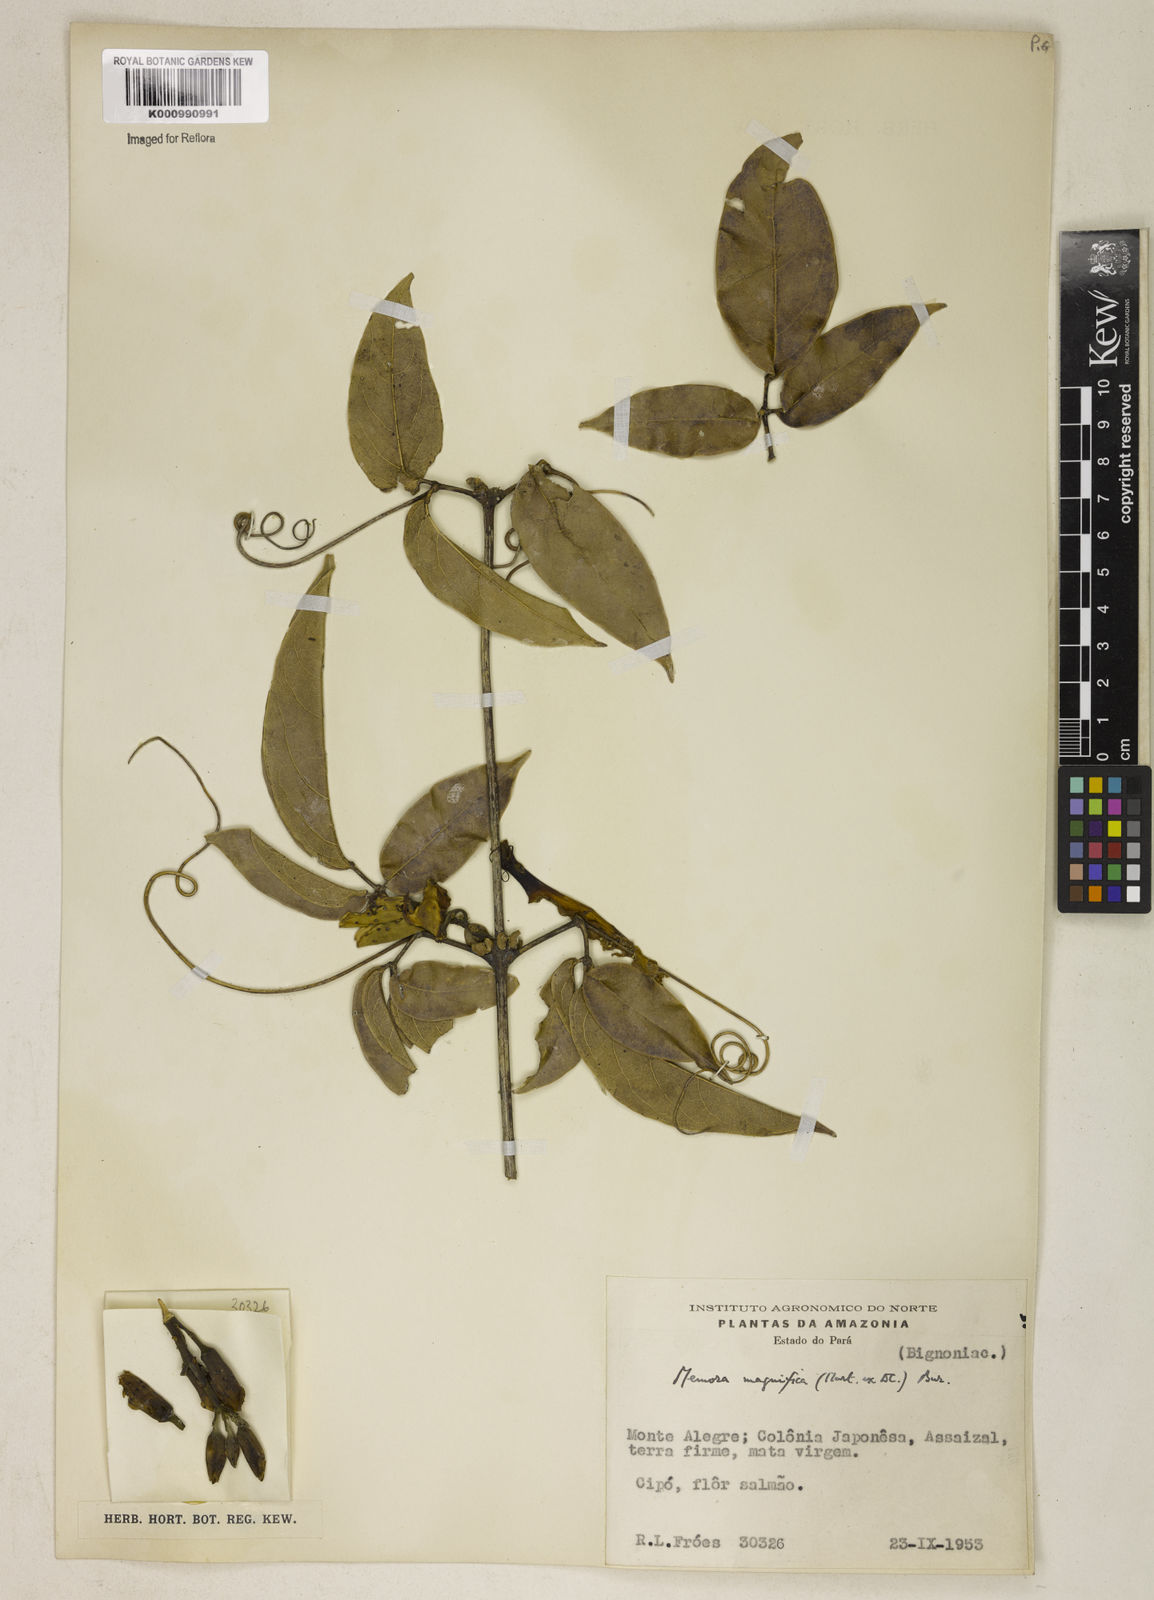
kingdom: Plantae
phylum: Tracheophyta
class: Magnoliopsida
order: Lamiales
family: Bignoniaceae
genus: Adenocalymma
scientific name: Adenocalymma magnificum
